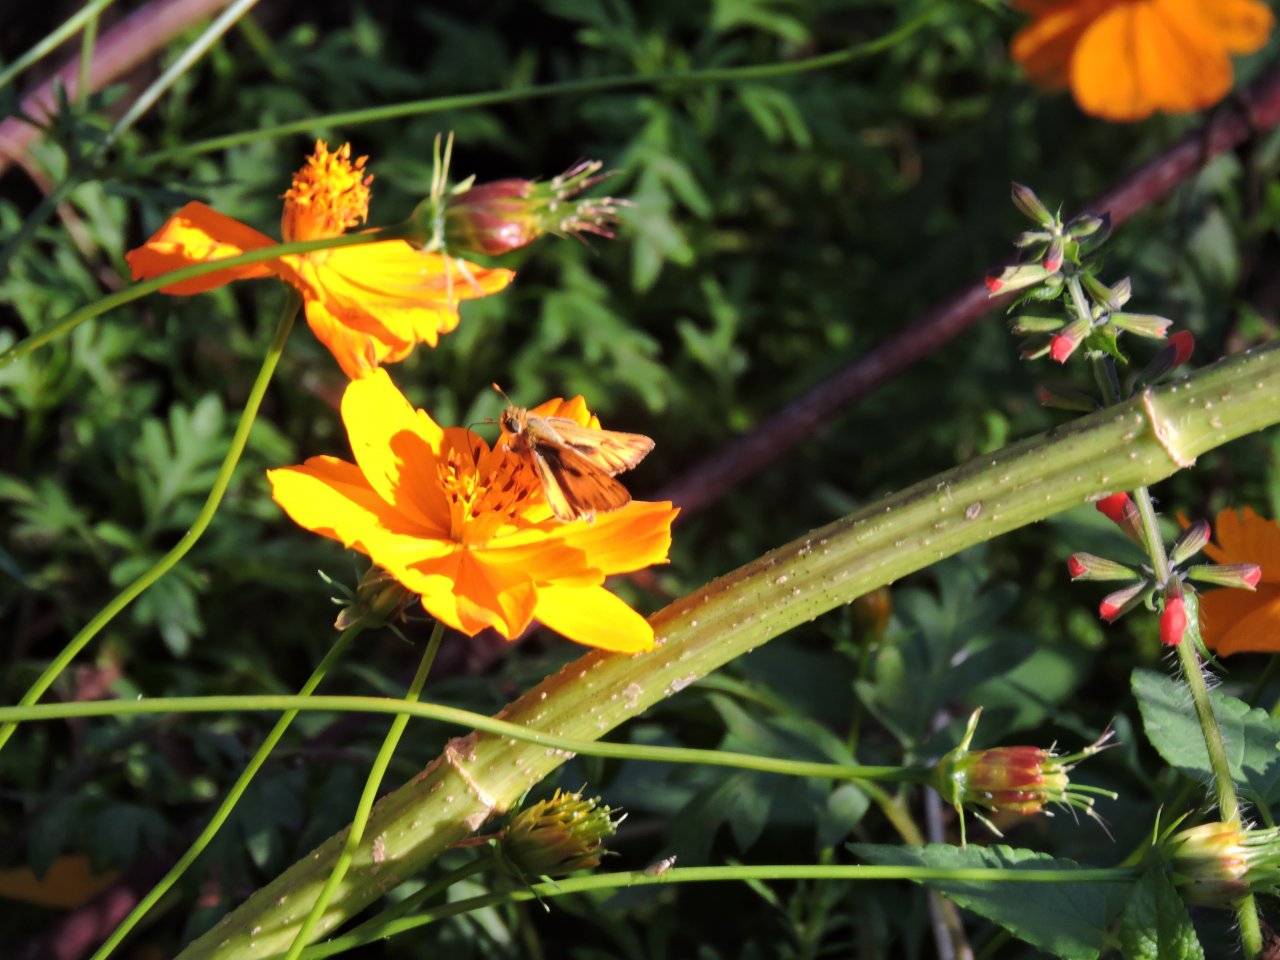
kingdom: Animalia
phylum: Arthropoda
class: Insecta
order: Lepidoptera
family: Hesperiidae
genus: Hylephila
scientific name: Hylephila phyleus
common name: Fiery Skipper
